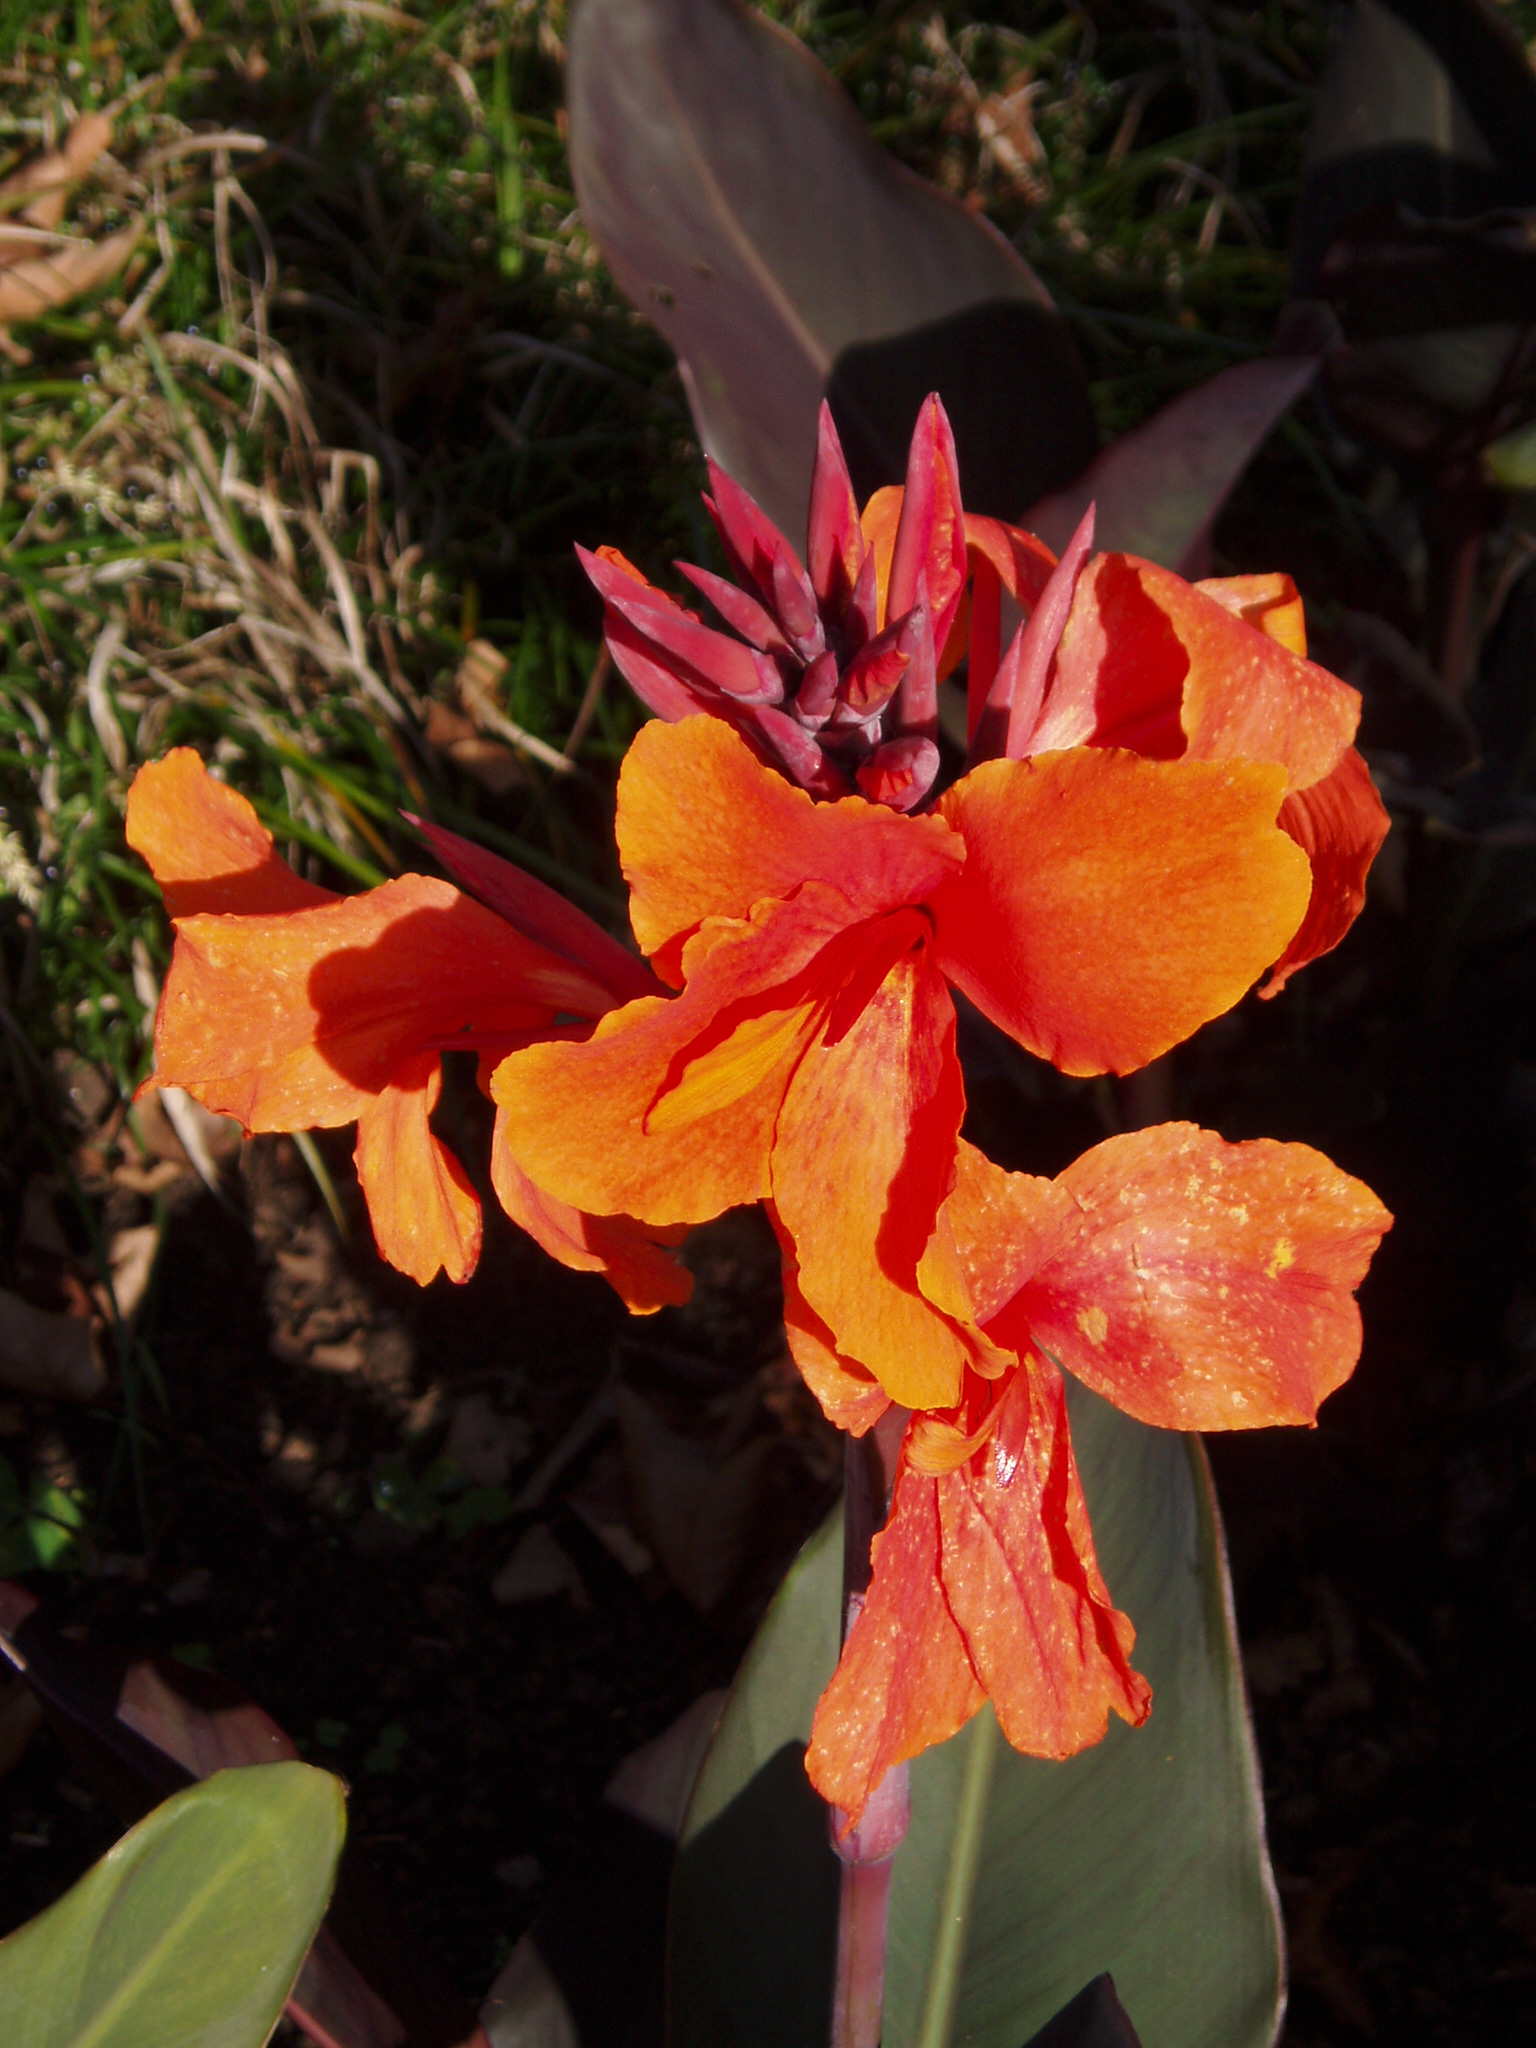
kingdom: Plantae
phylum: Tracheophyta
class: Liliopsida
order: Zingiberales
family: Cannaceae
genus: Canna
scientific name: Canna
